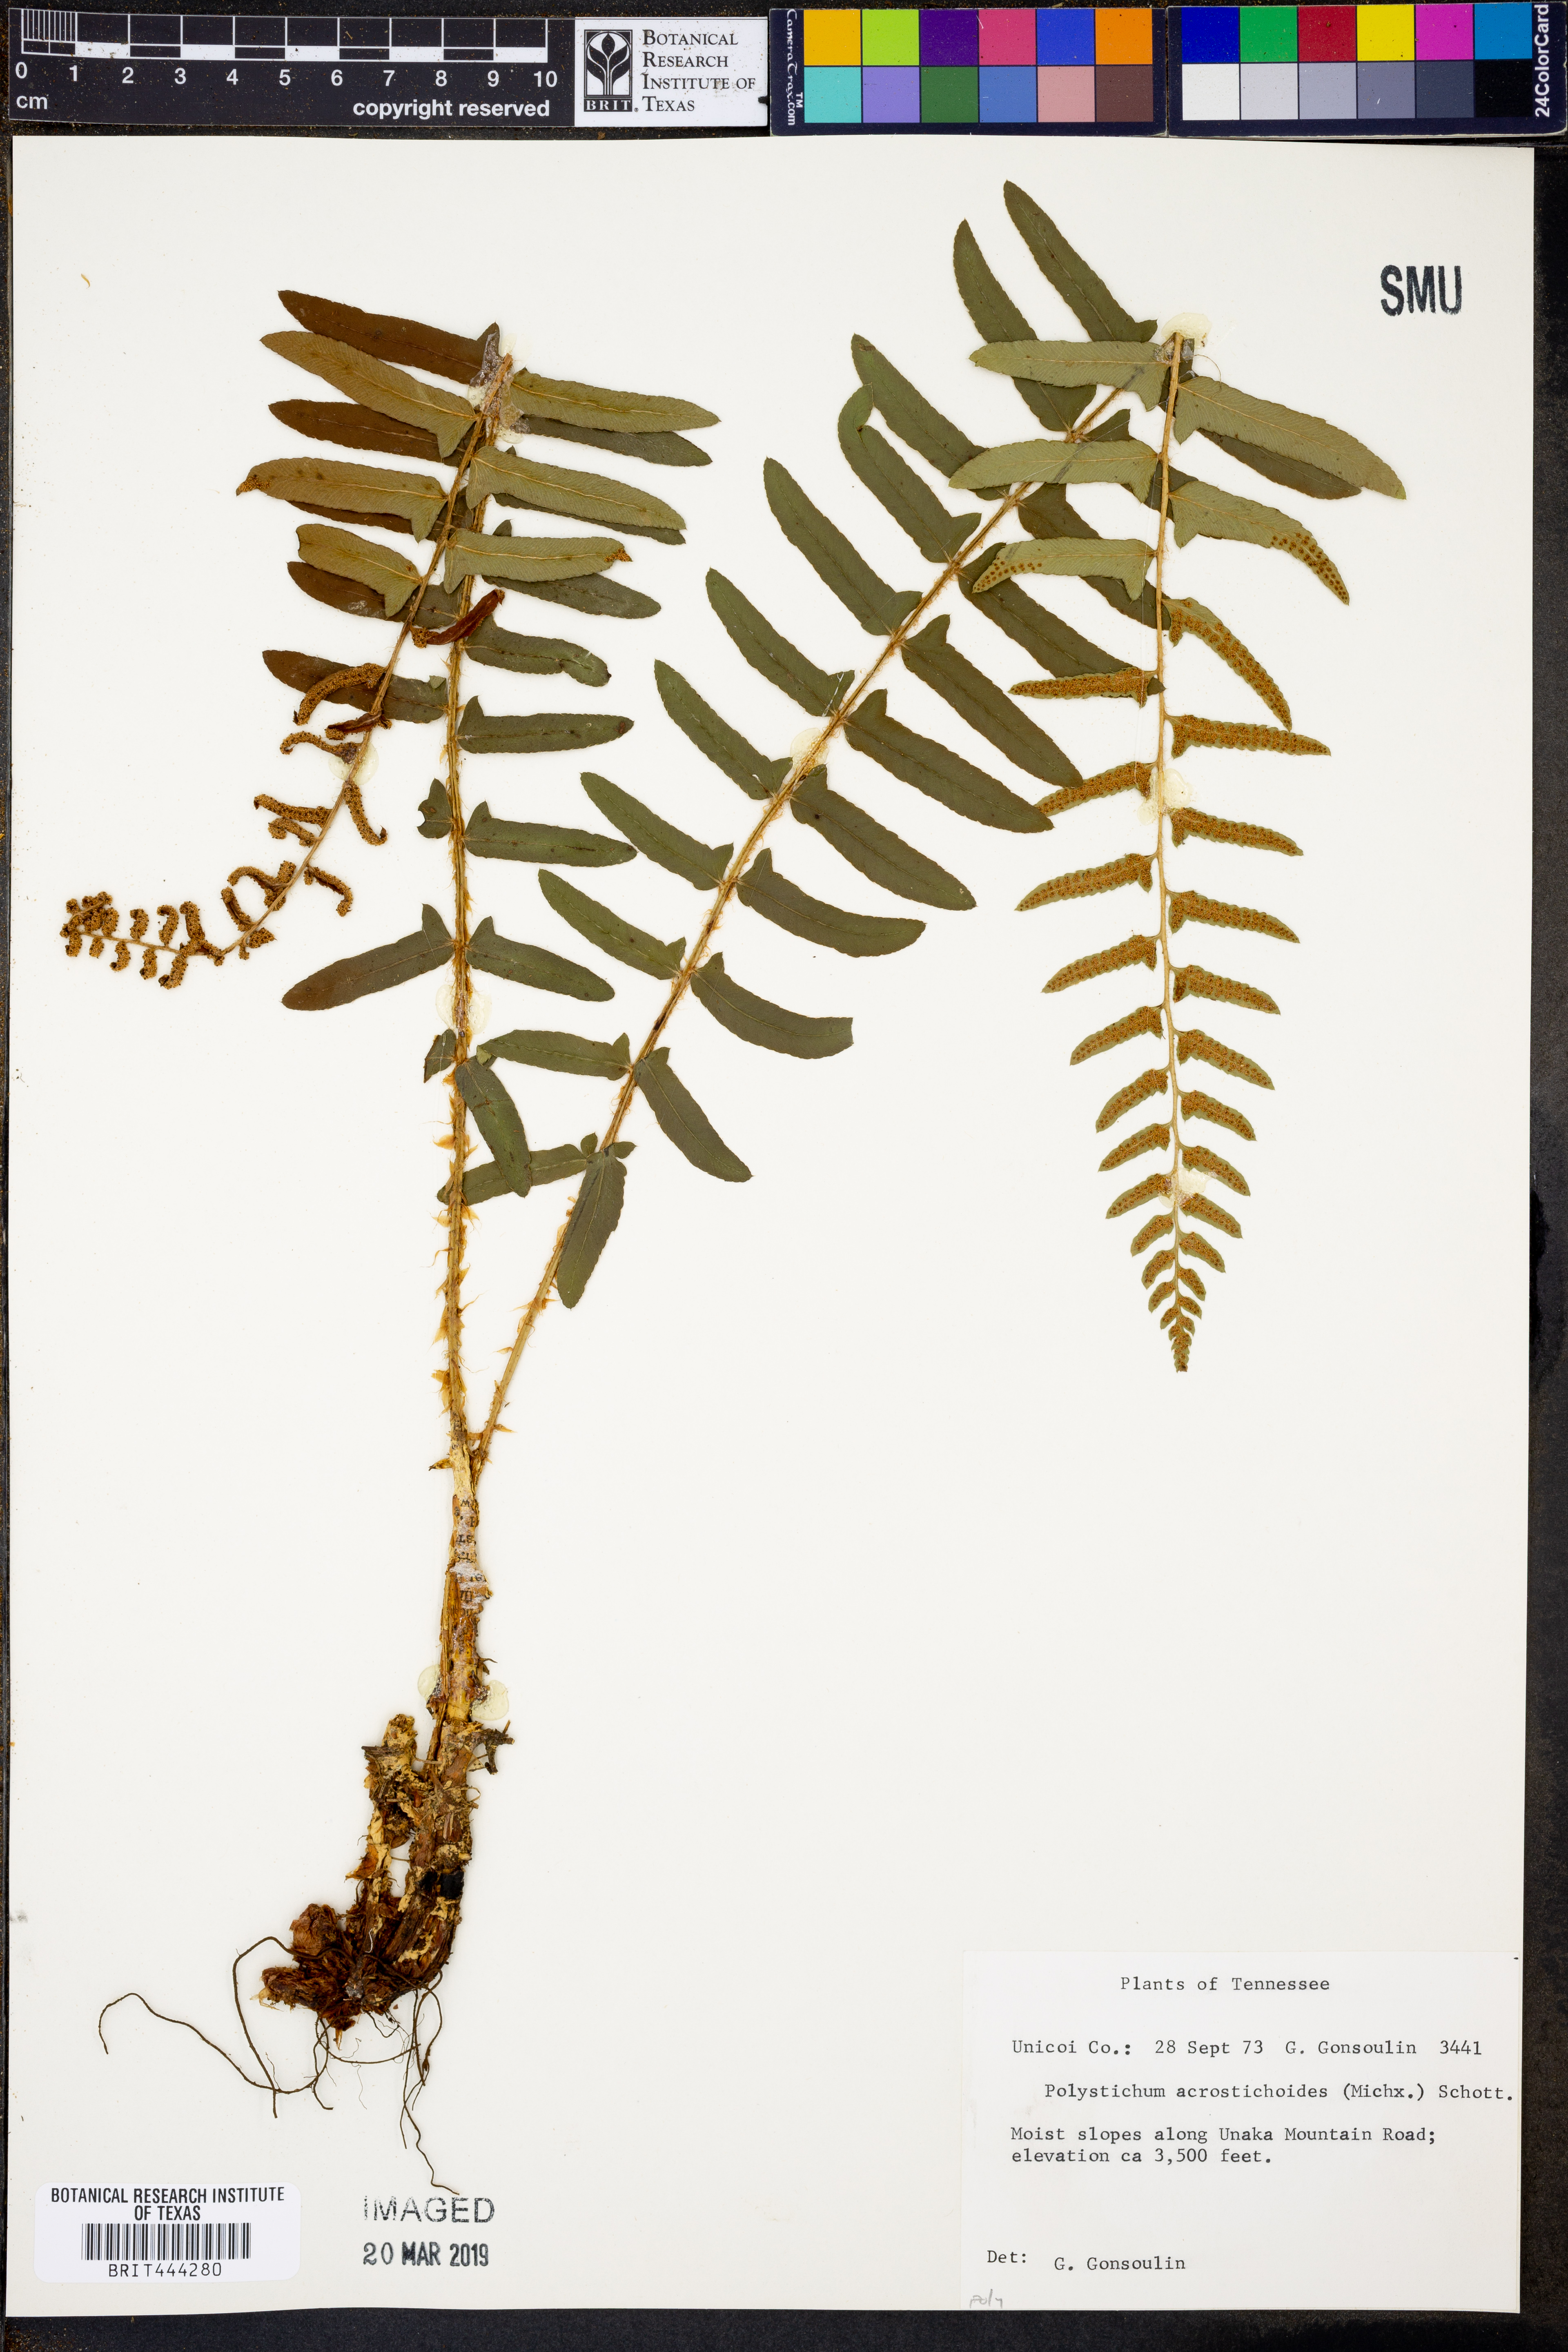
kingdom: Plantae
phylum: Tracheophyta
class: Polypodiopsida
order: Polypodiales
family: Dryopteridaceae
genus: Polystichum
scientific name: Polystichum acrostichoides
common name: Christmas fern
